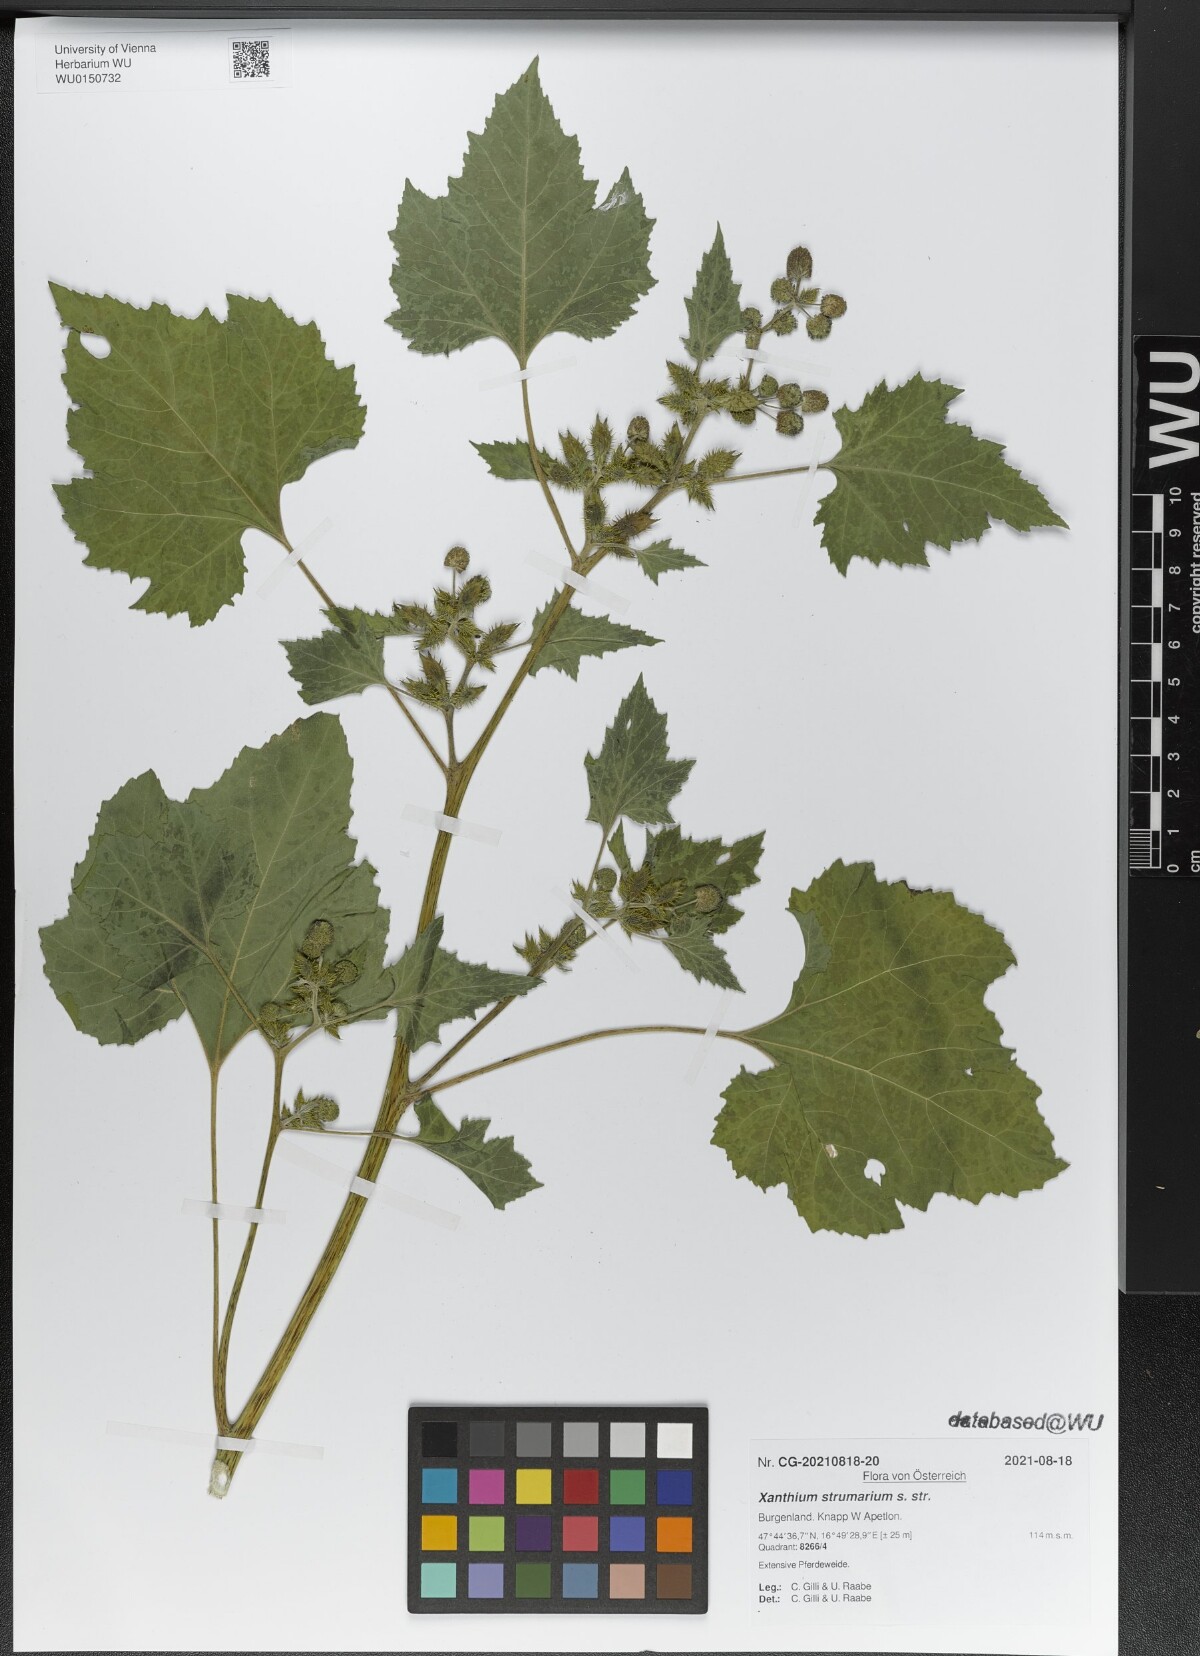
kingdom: Plantae
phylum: Tracheophyta
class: Magnoliopsida
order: Asterales
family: Asteraceae
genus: Xanthium
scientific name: Xanthium strumarium
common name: Rough cocklebur
